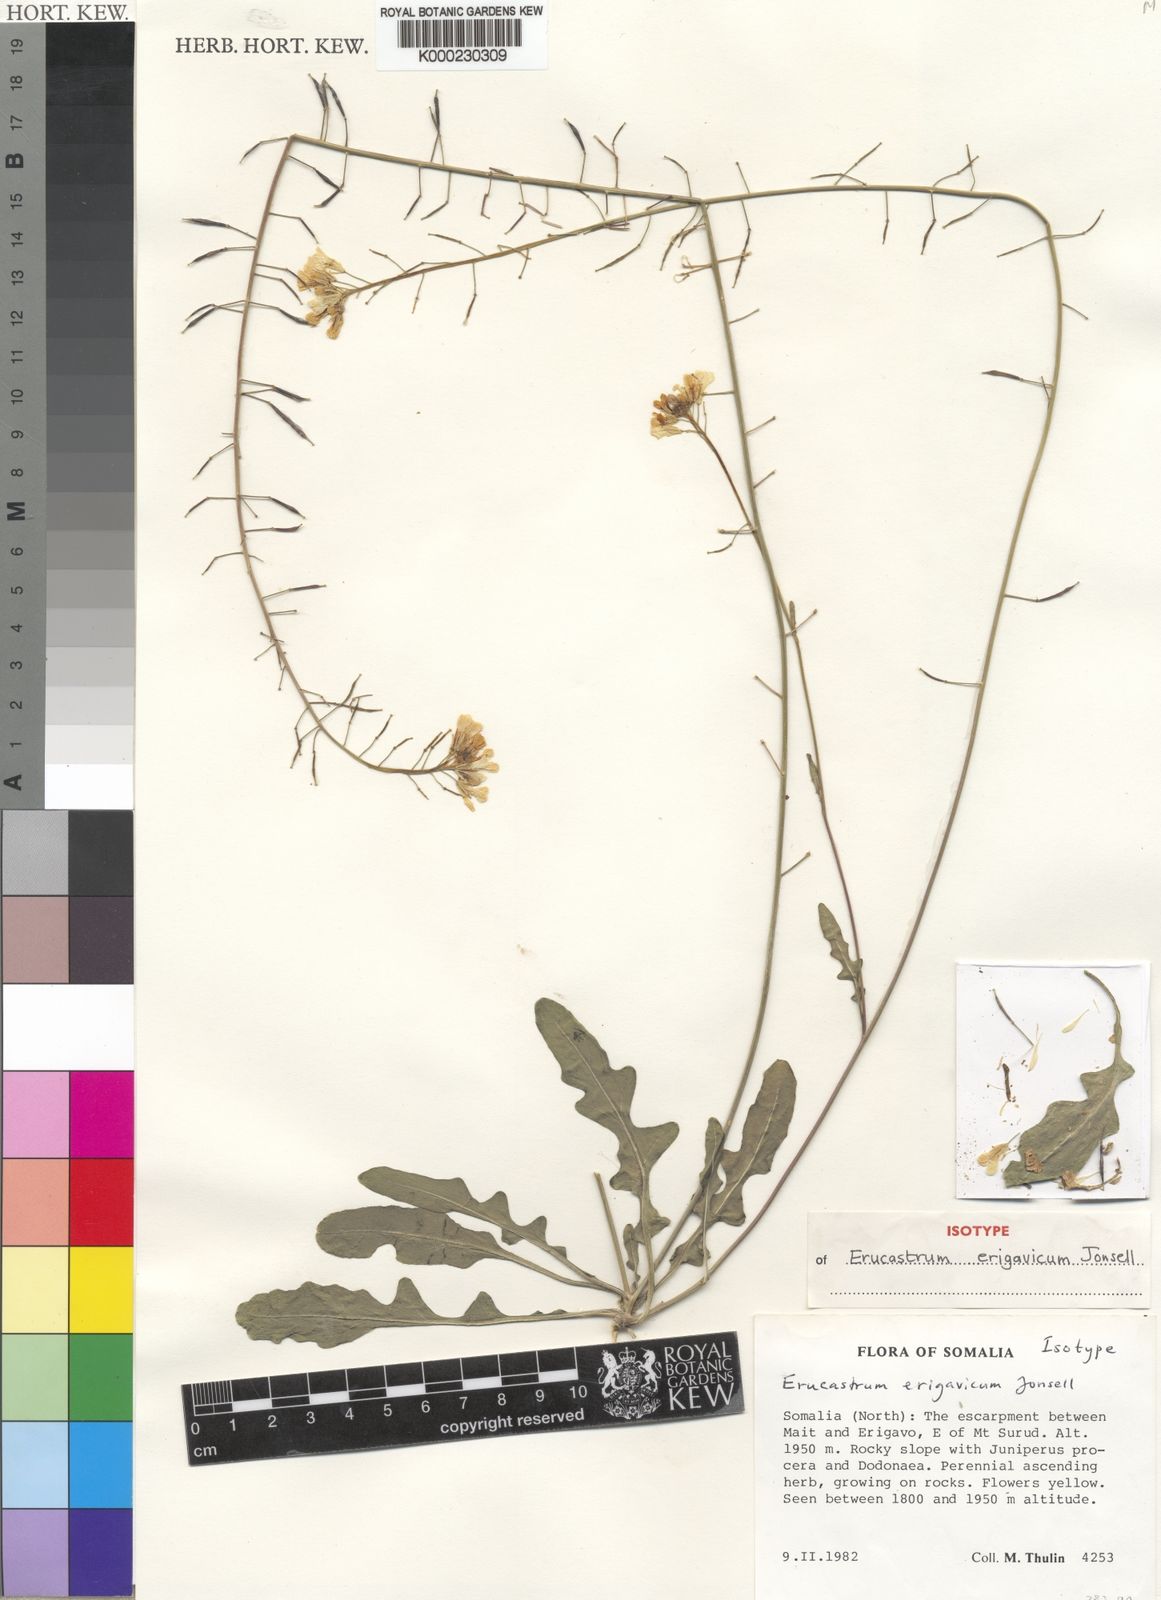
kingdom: Plantae
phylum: Tracheophyta
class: Magnoliopsida
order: Brassicales
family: Brassicaceae
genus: Erucastrum
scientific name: Erucastrum erigavicum
